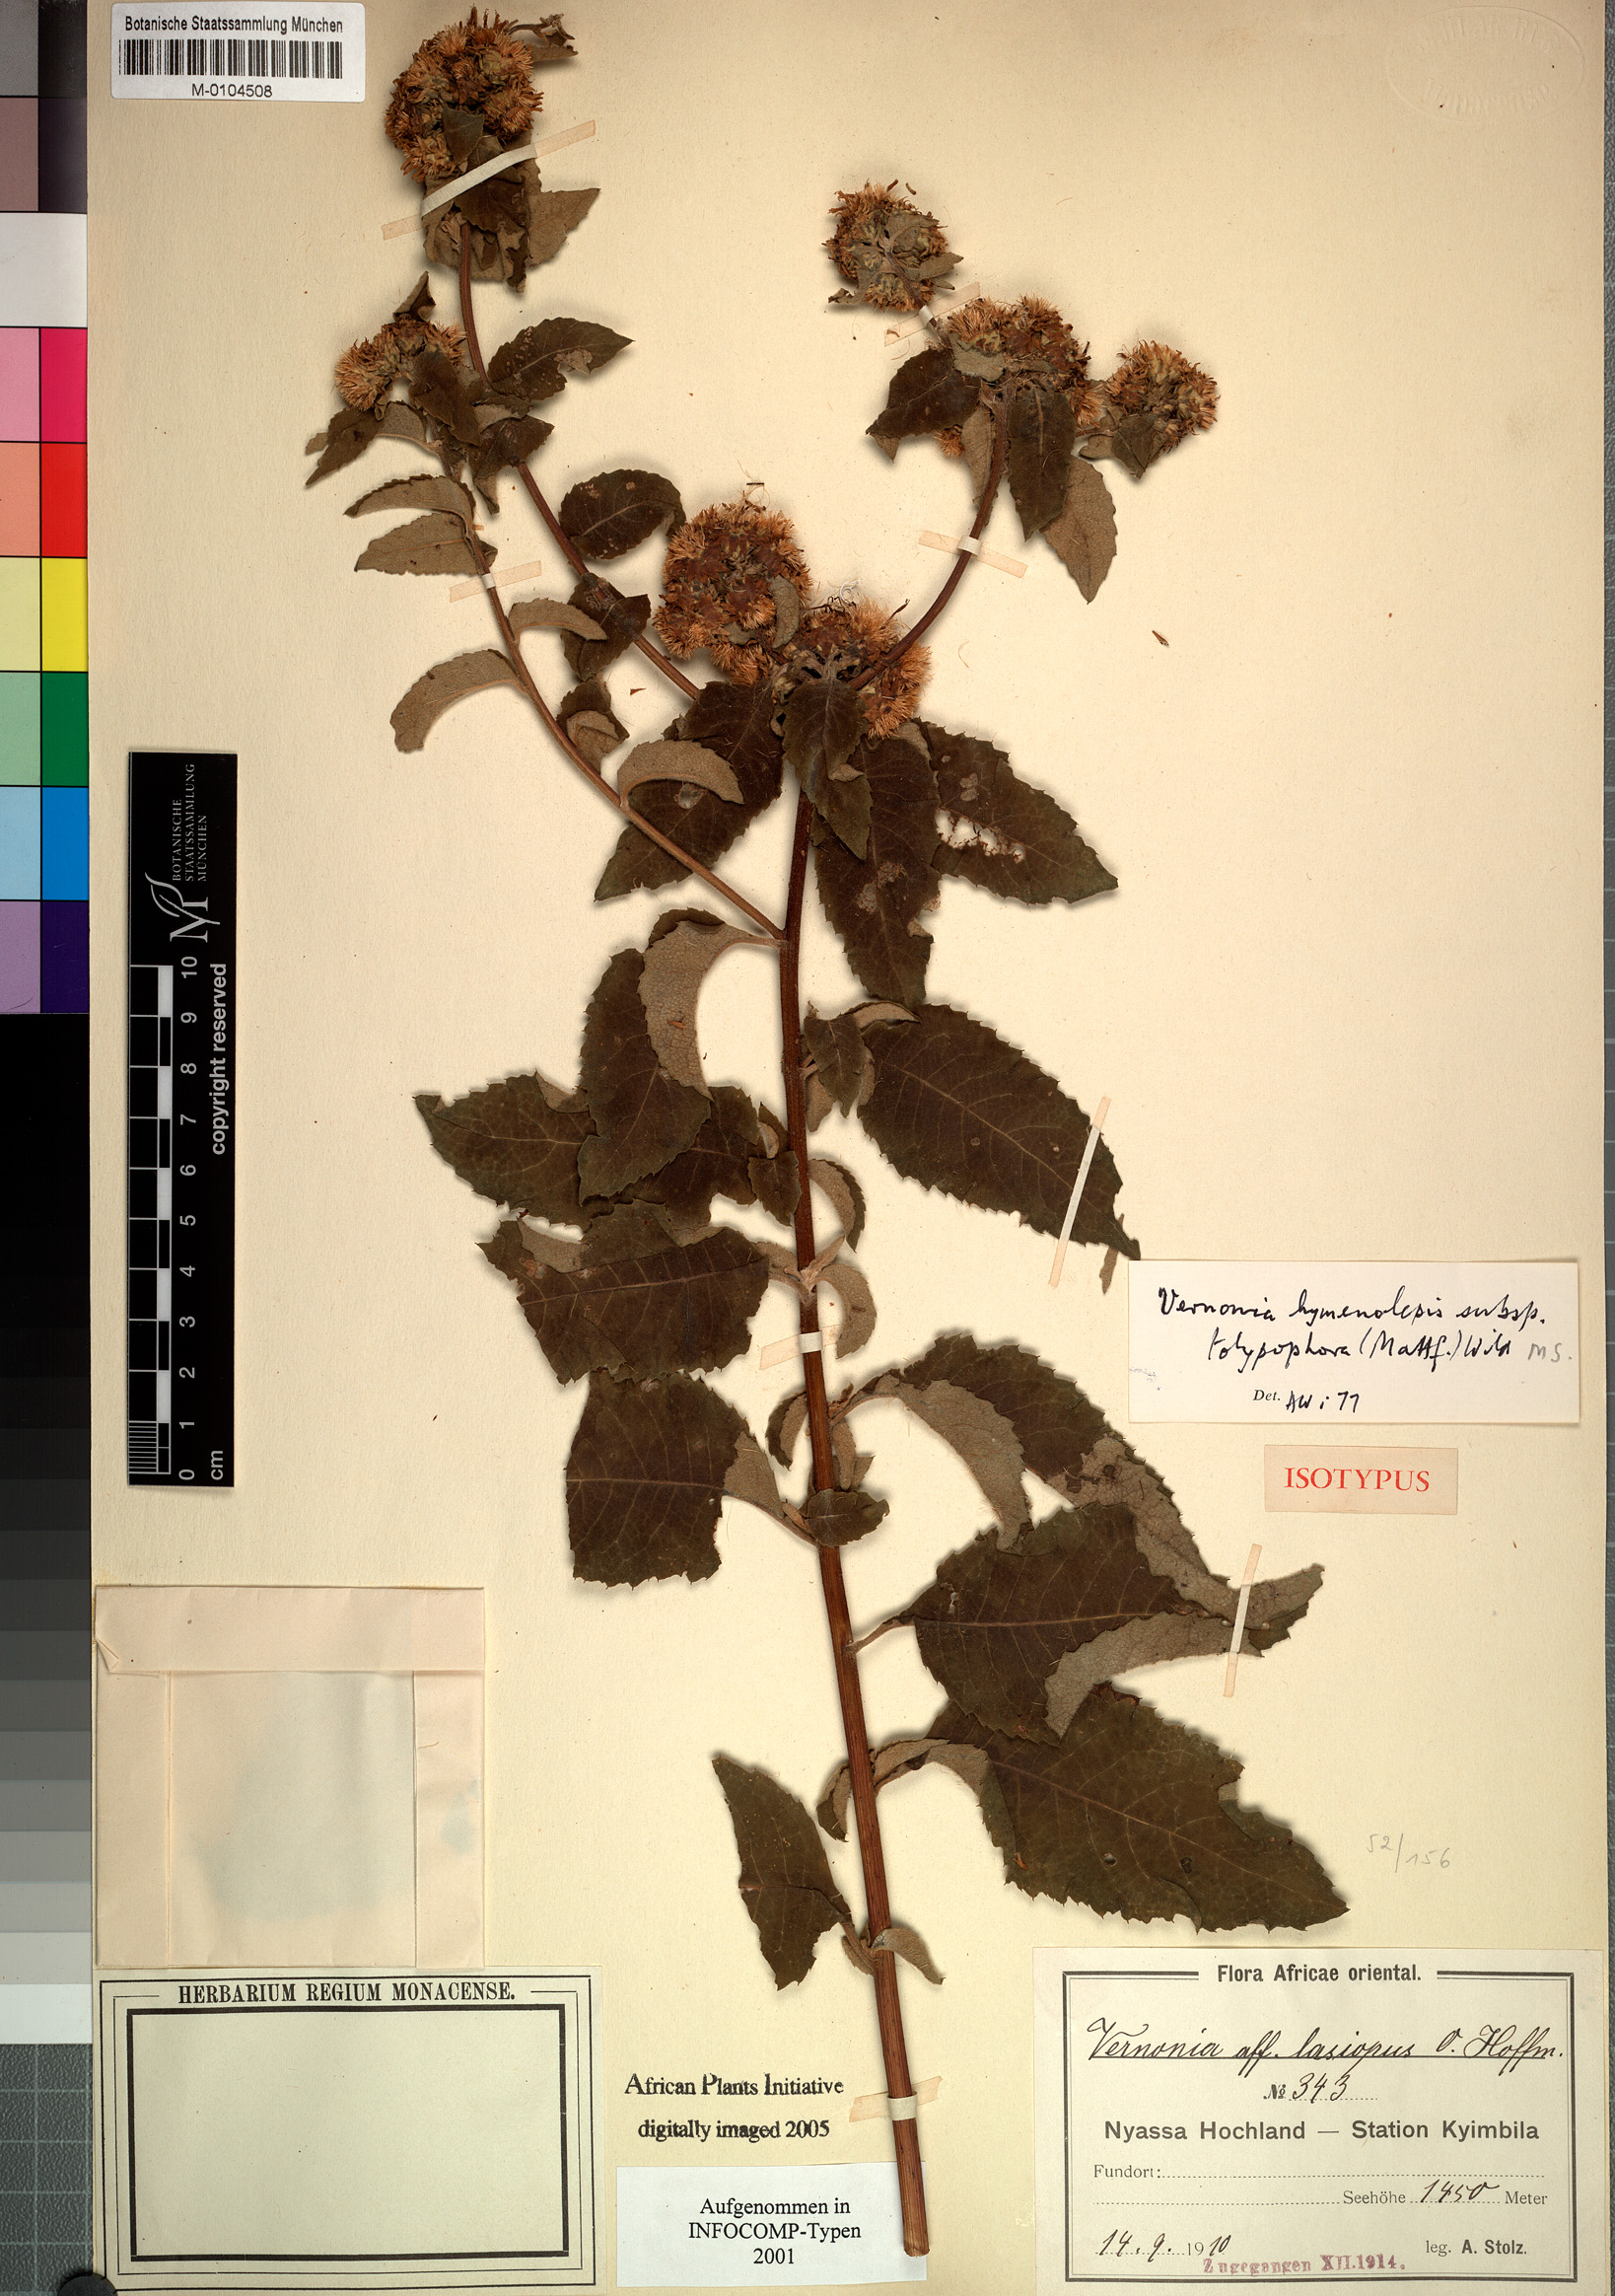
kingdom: Plantae
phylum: Tracheophyta
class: Magnoliopsida
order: Asterales
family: Asteraceae
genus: Baccharoides
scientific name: Baccharoides tolypophora
